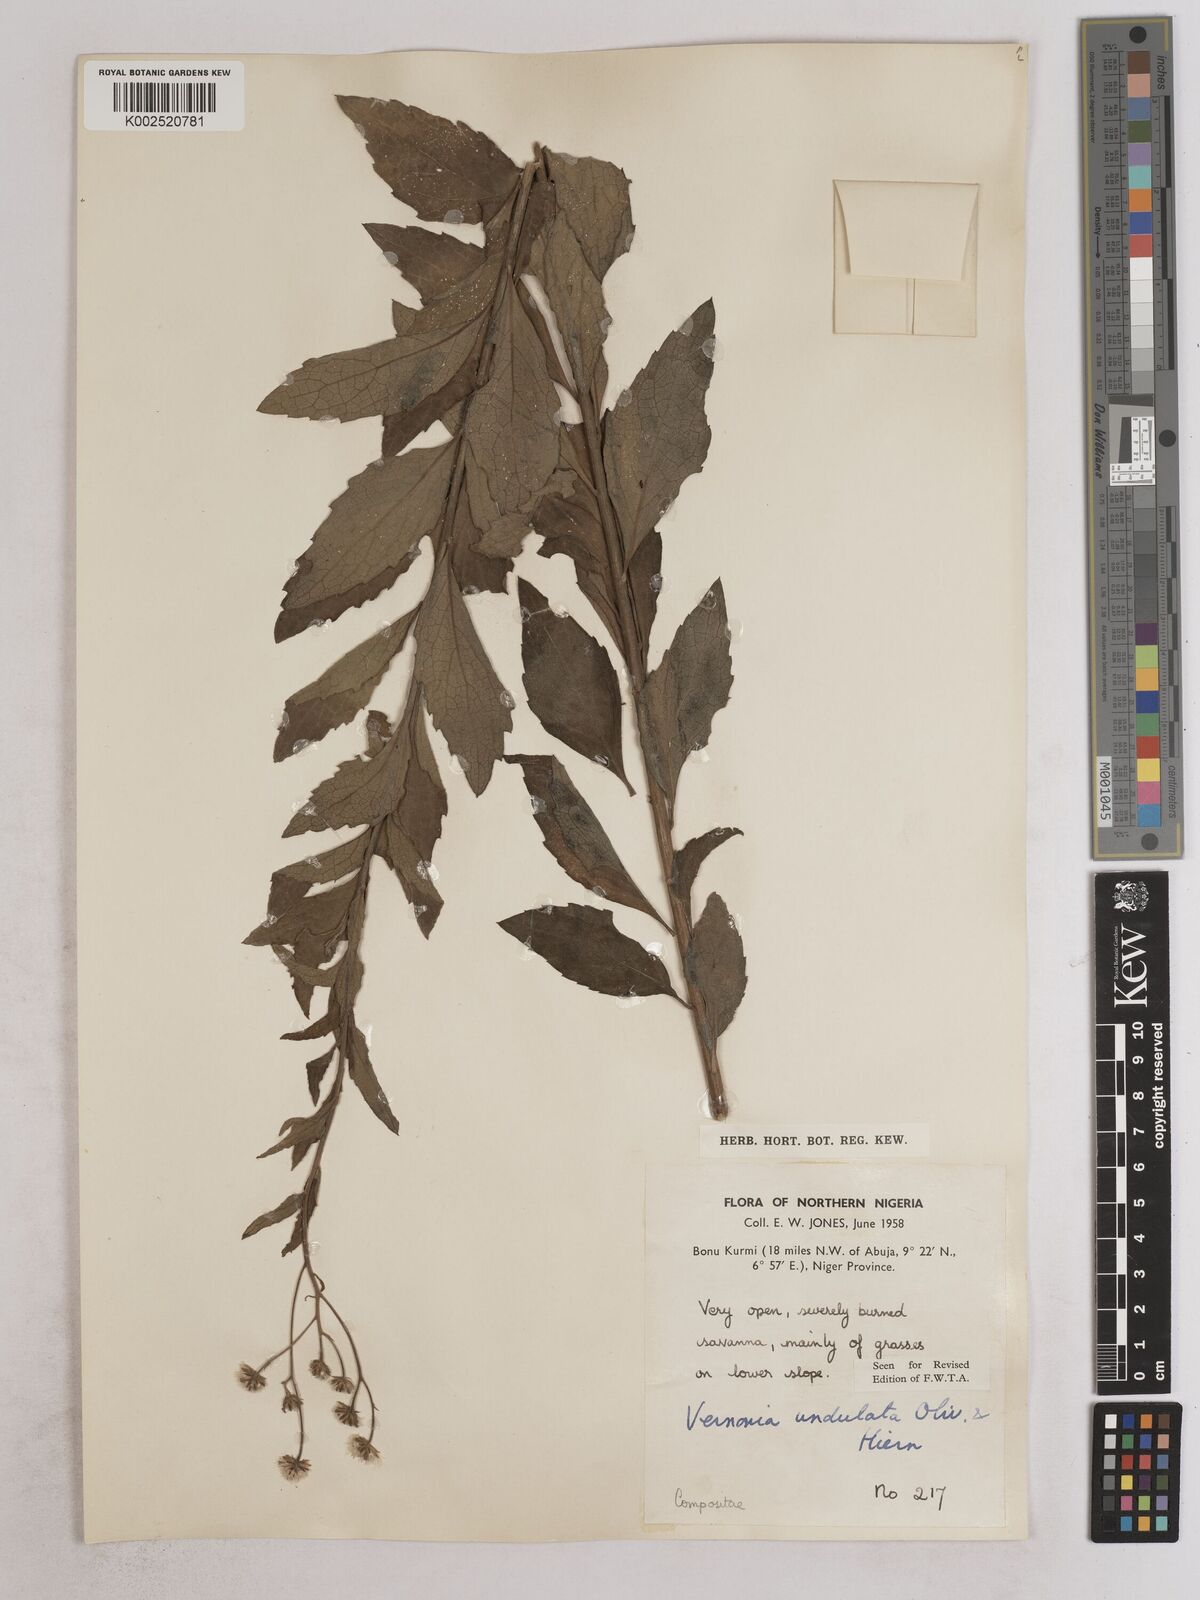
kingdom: Plantae
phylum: Tracheophyta
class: Magnoliopsida
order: Asterales
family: Asteraceae
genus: Vernonia
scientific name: Vernonia golungensis
